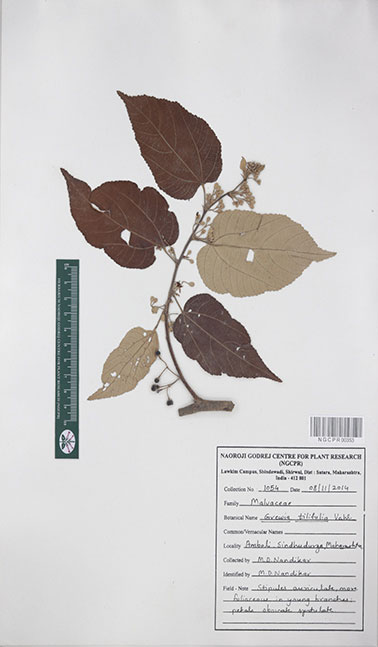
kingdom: Plantae
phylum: Tracheophyta
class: Magnoliopsida
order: Malvales
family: Malvaceae
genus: Grewia
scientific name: Grewia tiliifolia
